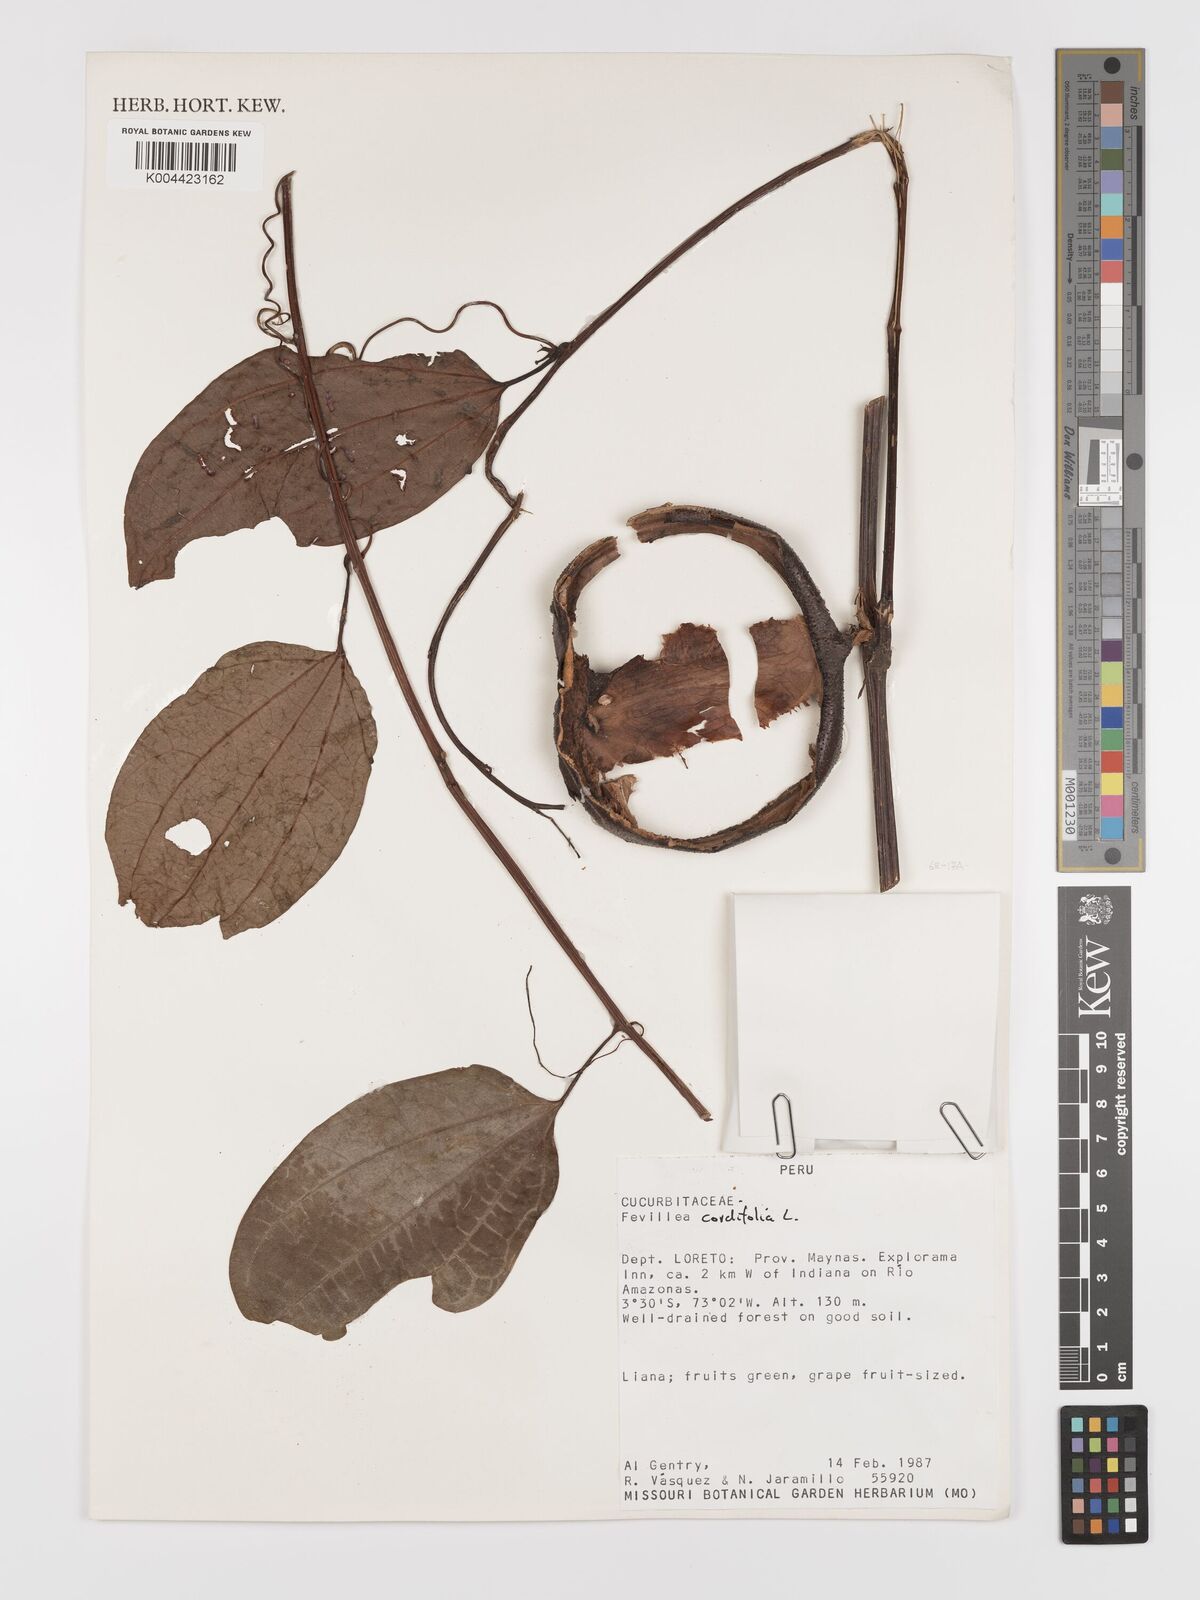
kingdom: Plantae
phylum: Tracheophyta
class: Magnoliopsida
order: Cucurbitales
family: Cucurbitaceae
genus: Fevillea
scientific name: Fevillea
